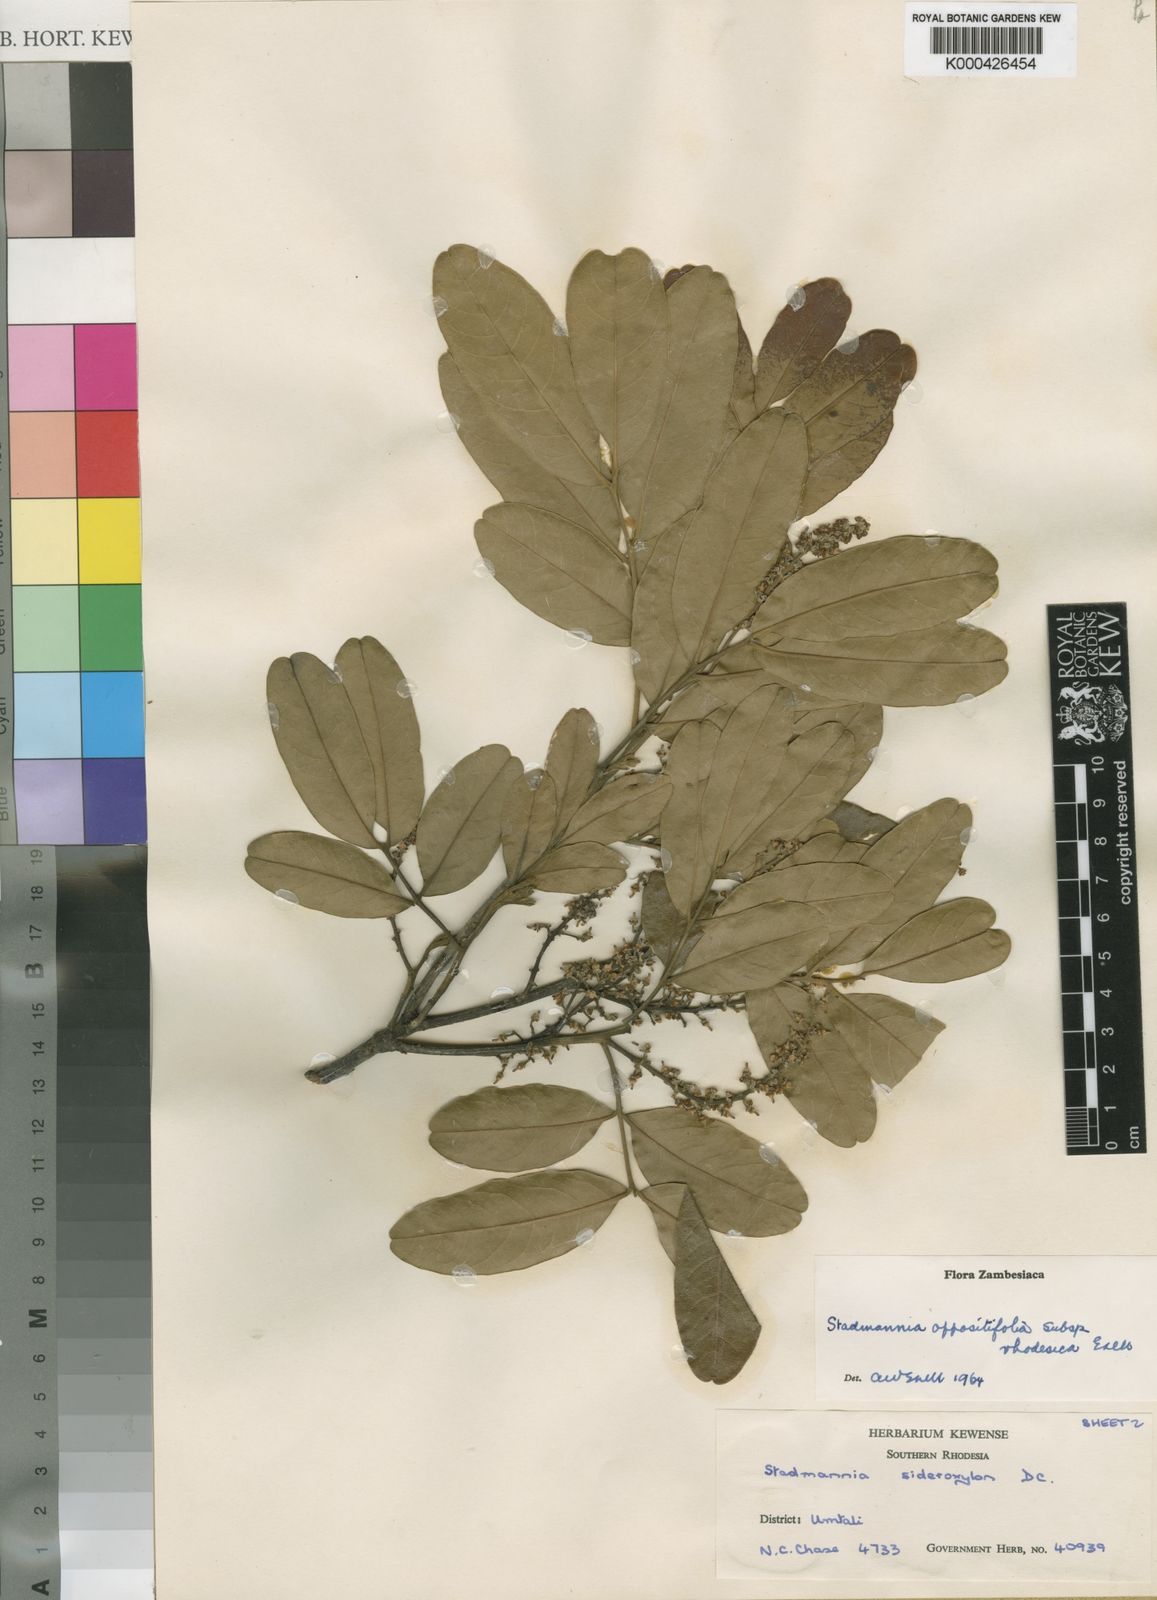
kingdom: Plantae
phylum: Tracheophyta
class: Magnoliopsida
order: Sapindales
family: Sapindaceae
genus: Stadmannia
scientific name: Stadmannia oppositifolia
